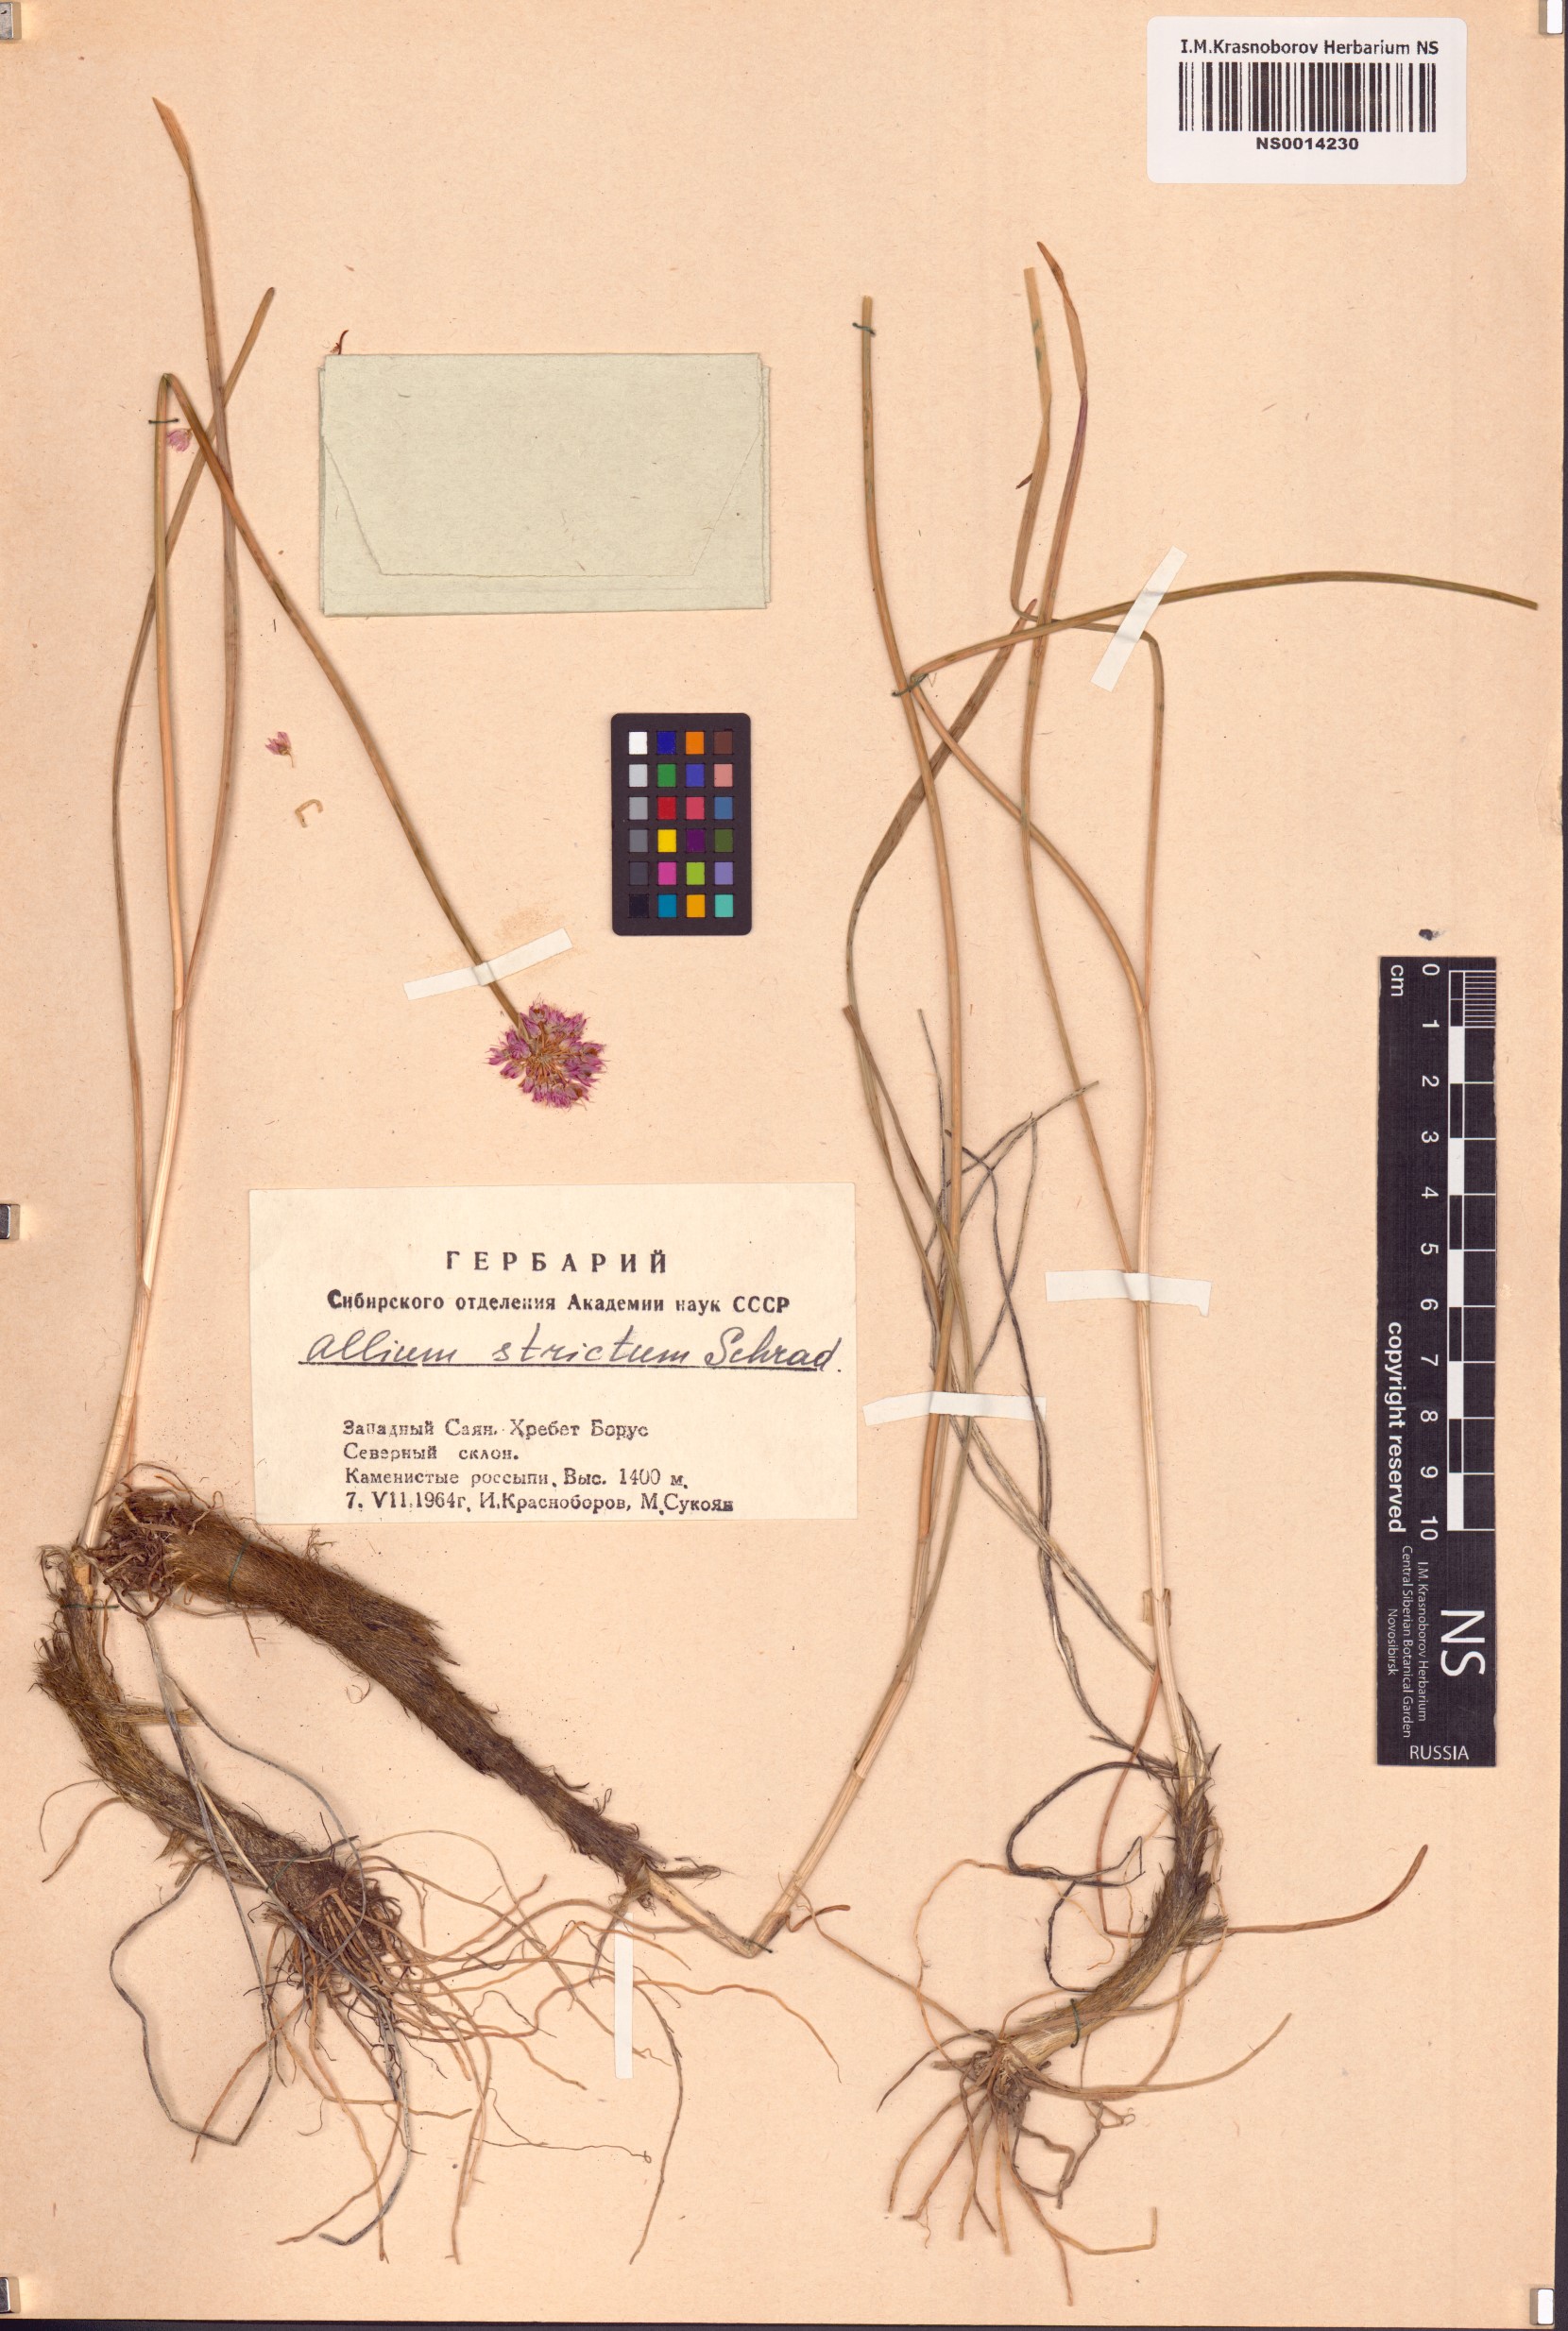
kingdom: Plantae
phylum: Tracheophyta
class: Liliopsida
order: Asparagales
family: Amaryllidaceae
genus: Allium
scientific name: Allium strictum
